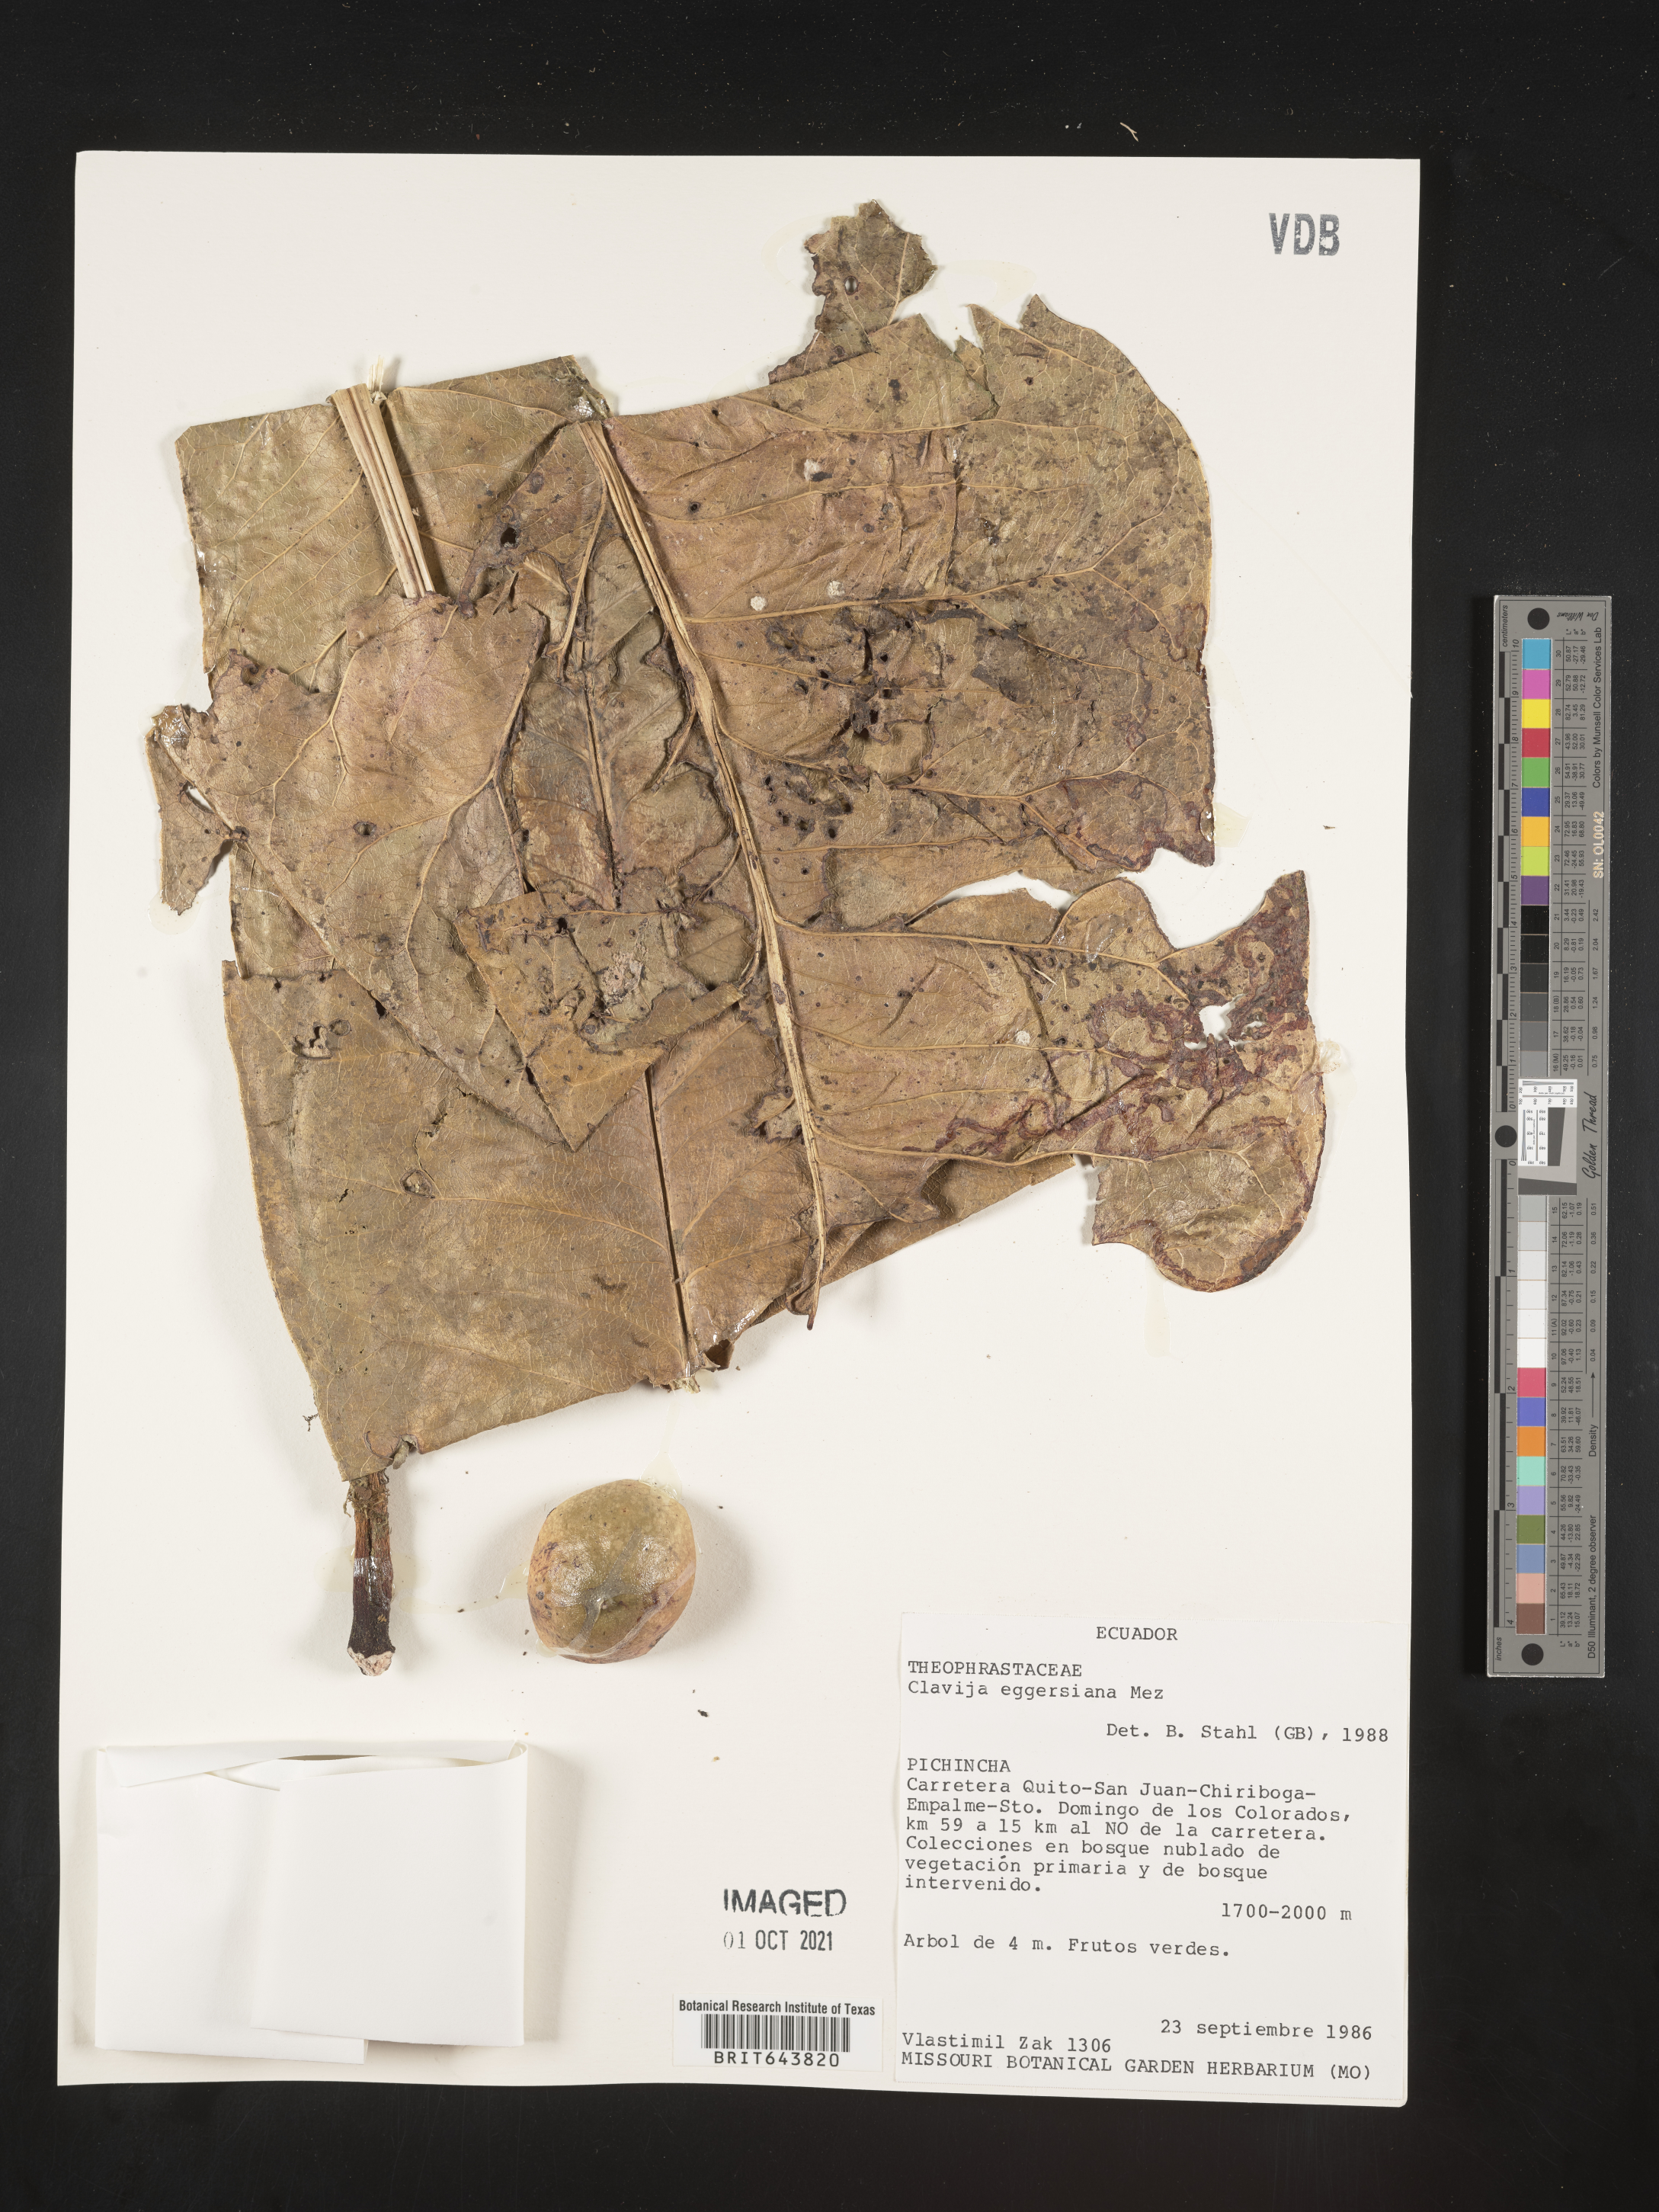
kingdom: Plantae
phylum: Tracheophyta
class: Magnoliopsida
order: Ericales
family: Primulaceae
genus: Clavija
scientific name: Clavija
